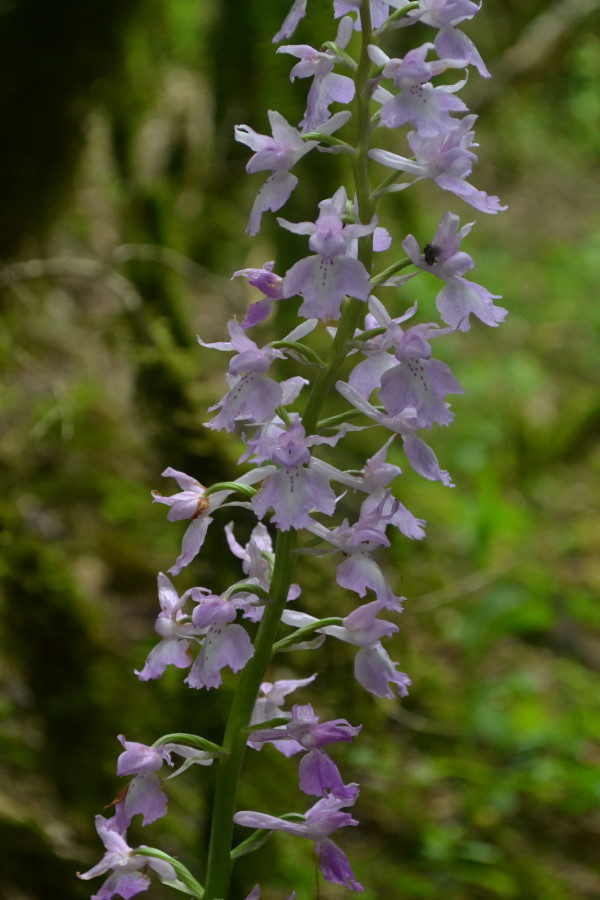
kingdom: Plantae
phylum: Tracheophyta
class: Liliopsida
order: Asparagales
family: Orchidaceae
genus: Orchis
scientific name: Orchis mascula
